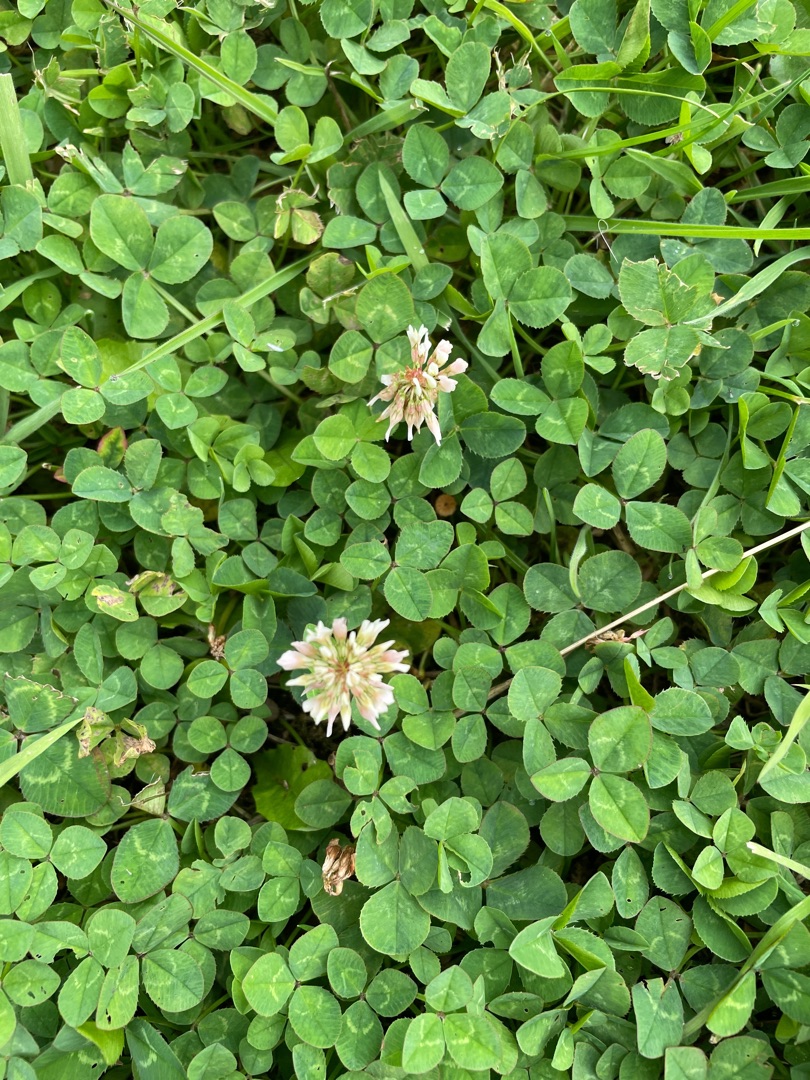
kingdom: Plantae
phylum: Tracheophyta
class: Magnoliopsida
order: Fabales
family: Fabaceae
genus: Trifolium
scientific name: Trifolium repens
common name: Hvid-kløver
